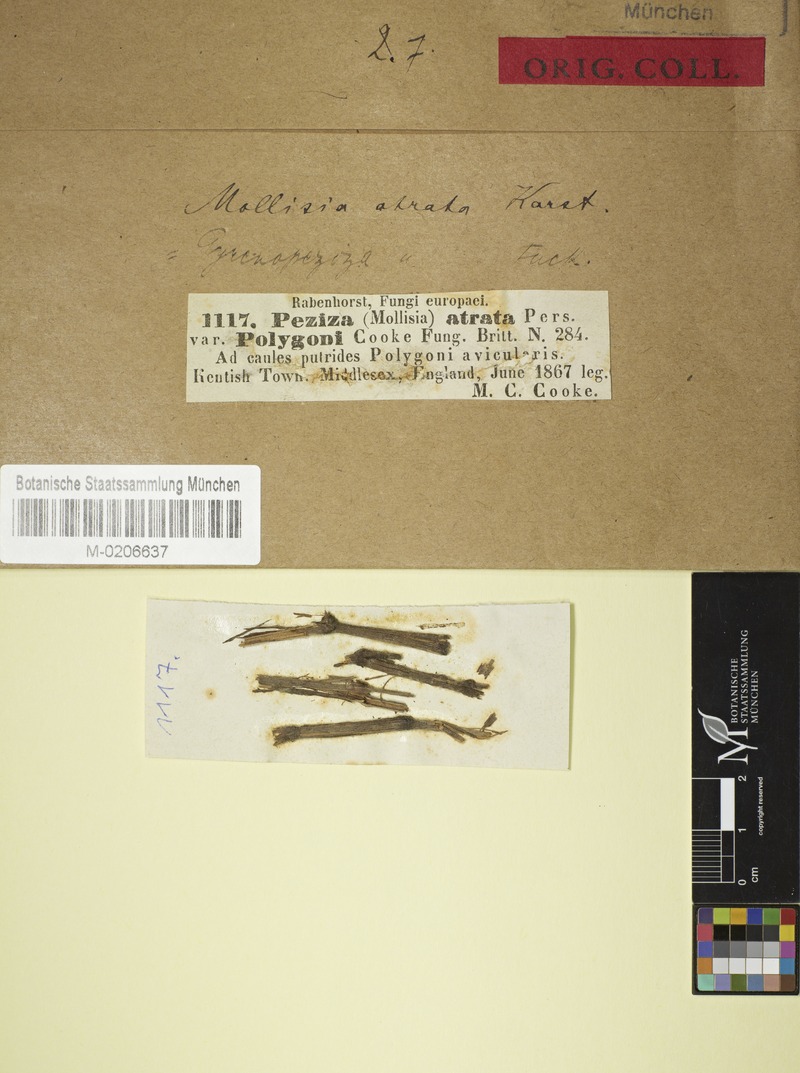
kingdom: Fungi
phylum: Ascomycota
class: Leotiomycetes
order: Helotiales
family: Mollisiaceae
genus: Mollisia
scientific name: Mollisia polygoni
